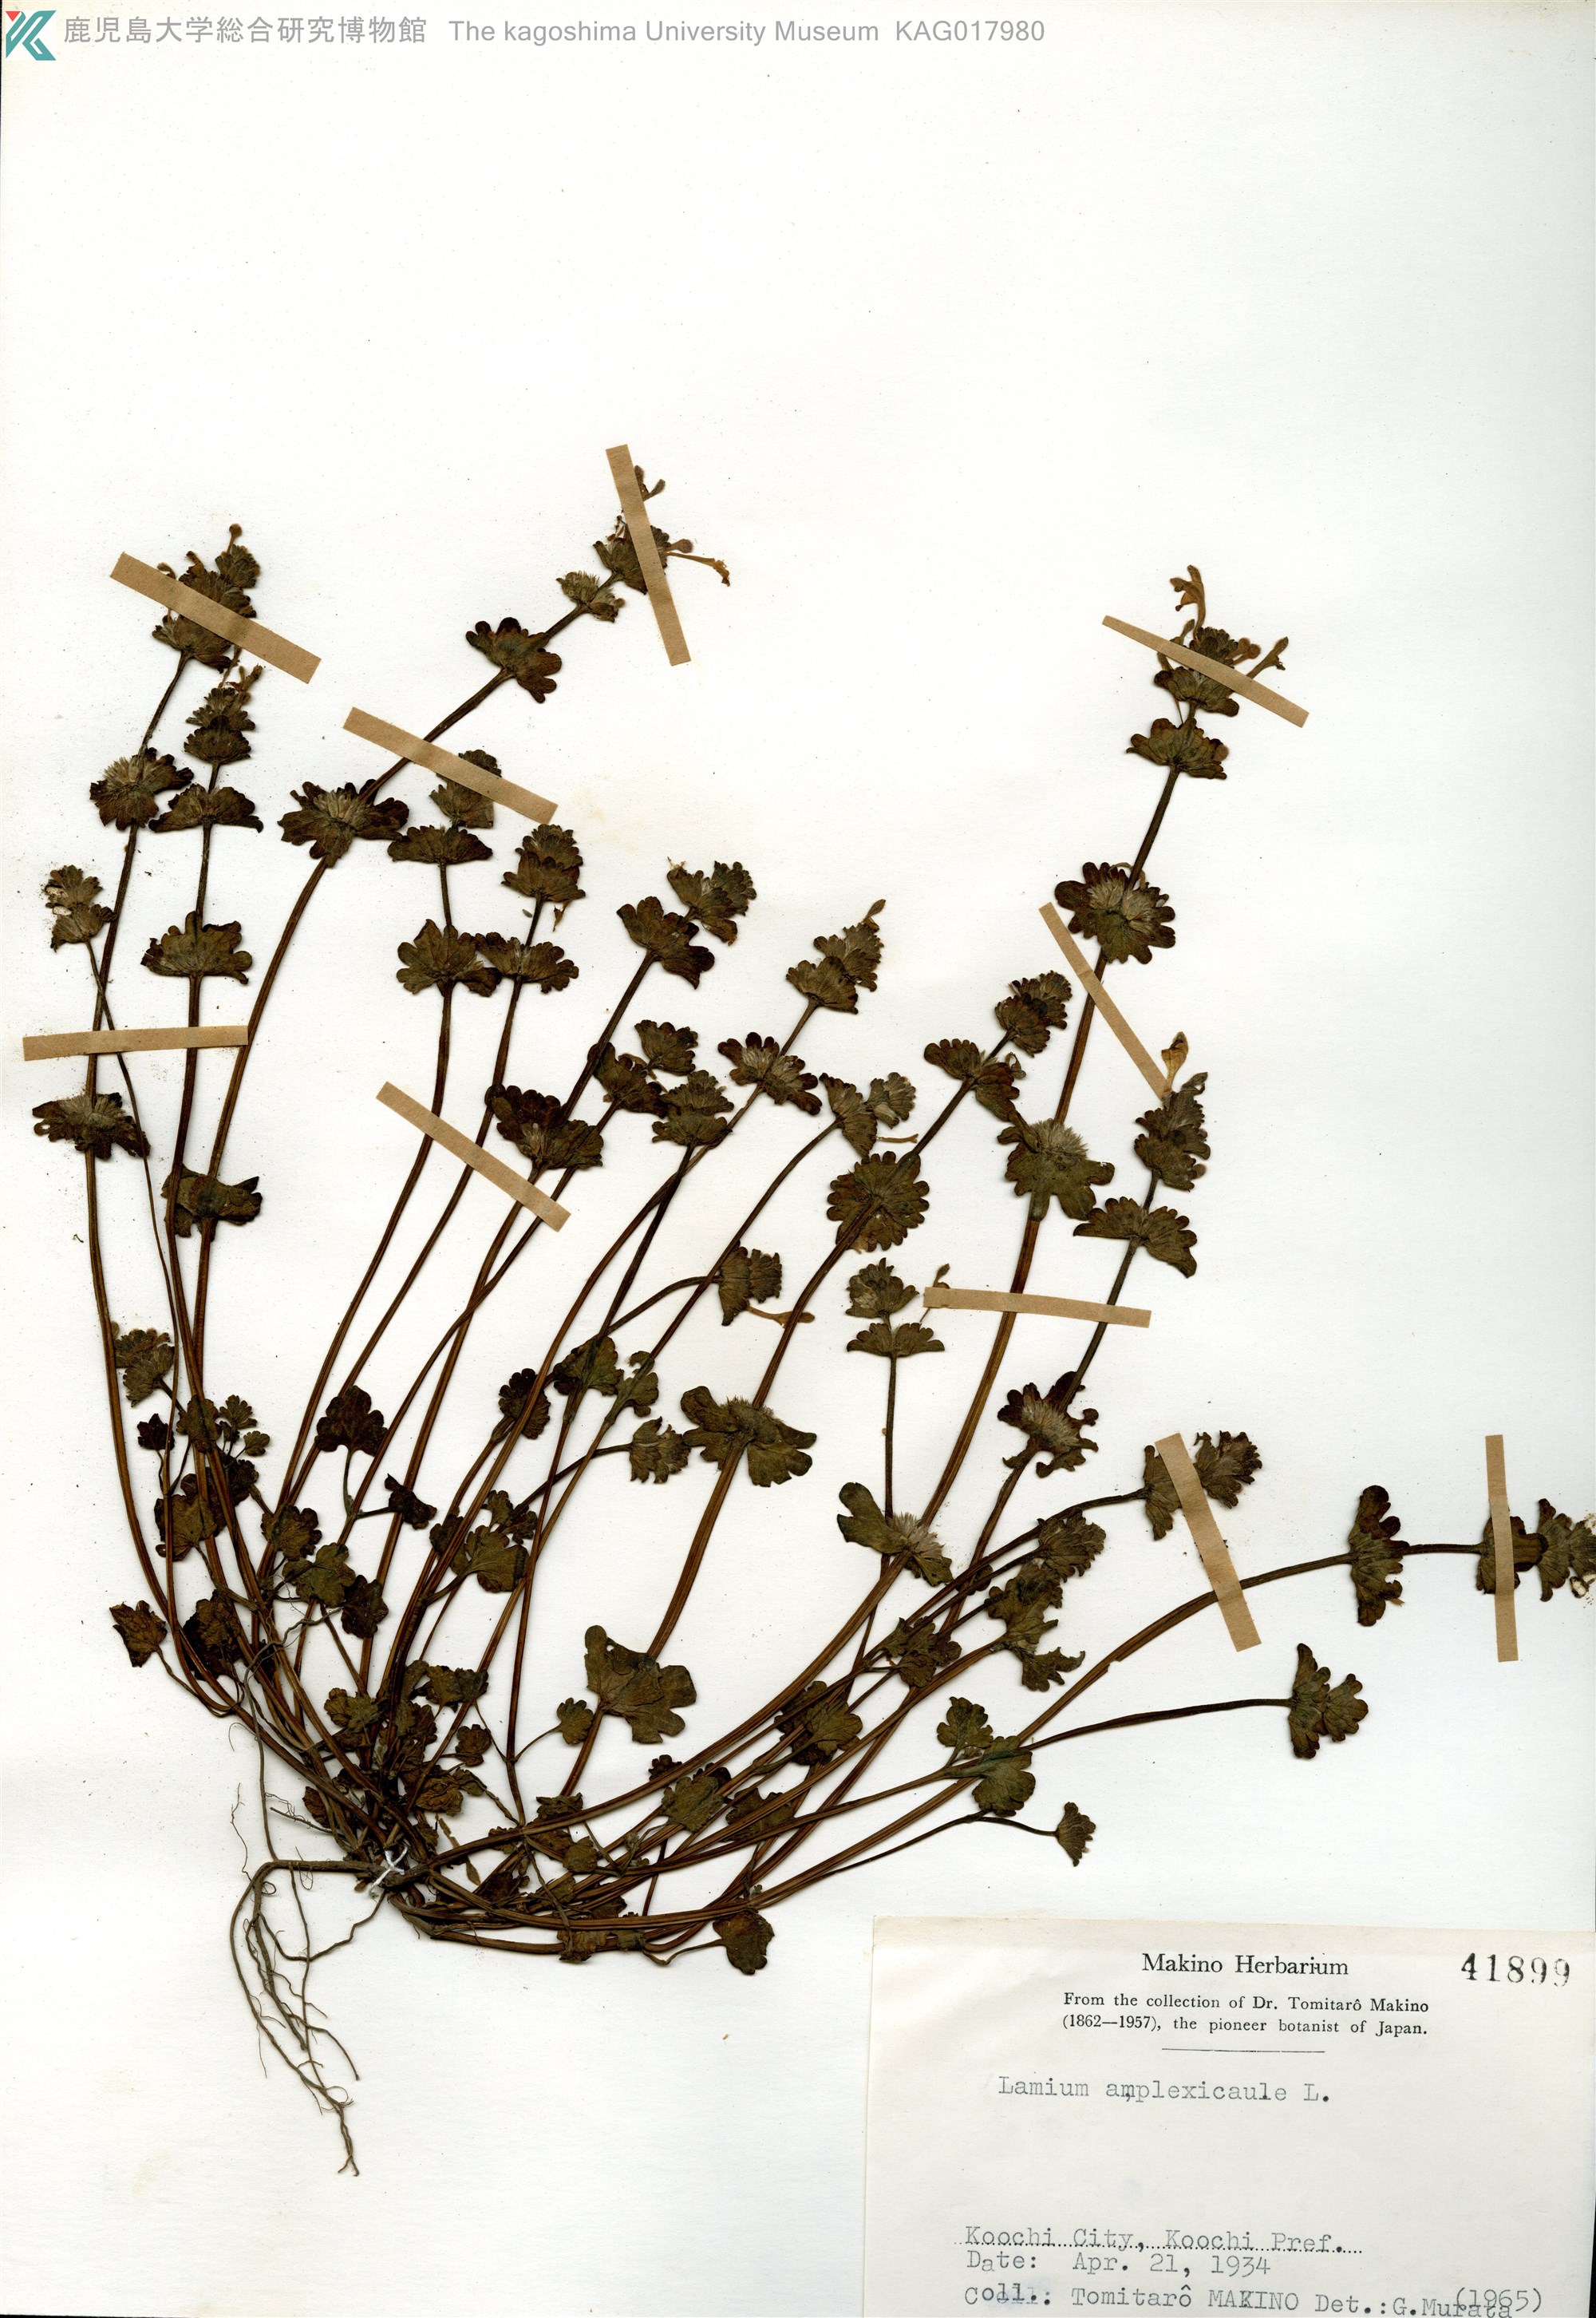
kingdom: Plantae
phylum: Tracheophyta
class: Magnoliopsida
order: Lamiales
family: Lamiaceae
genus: Lamium
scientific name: Lamium amplexicaule
